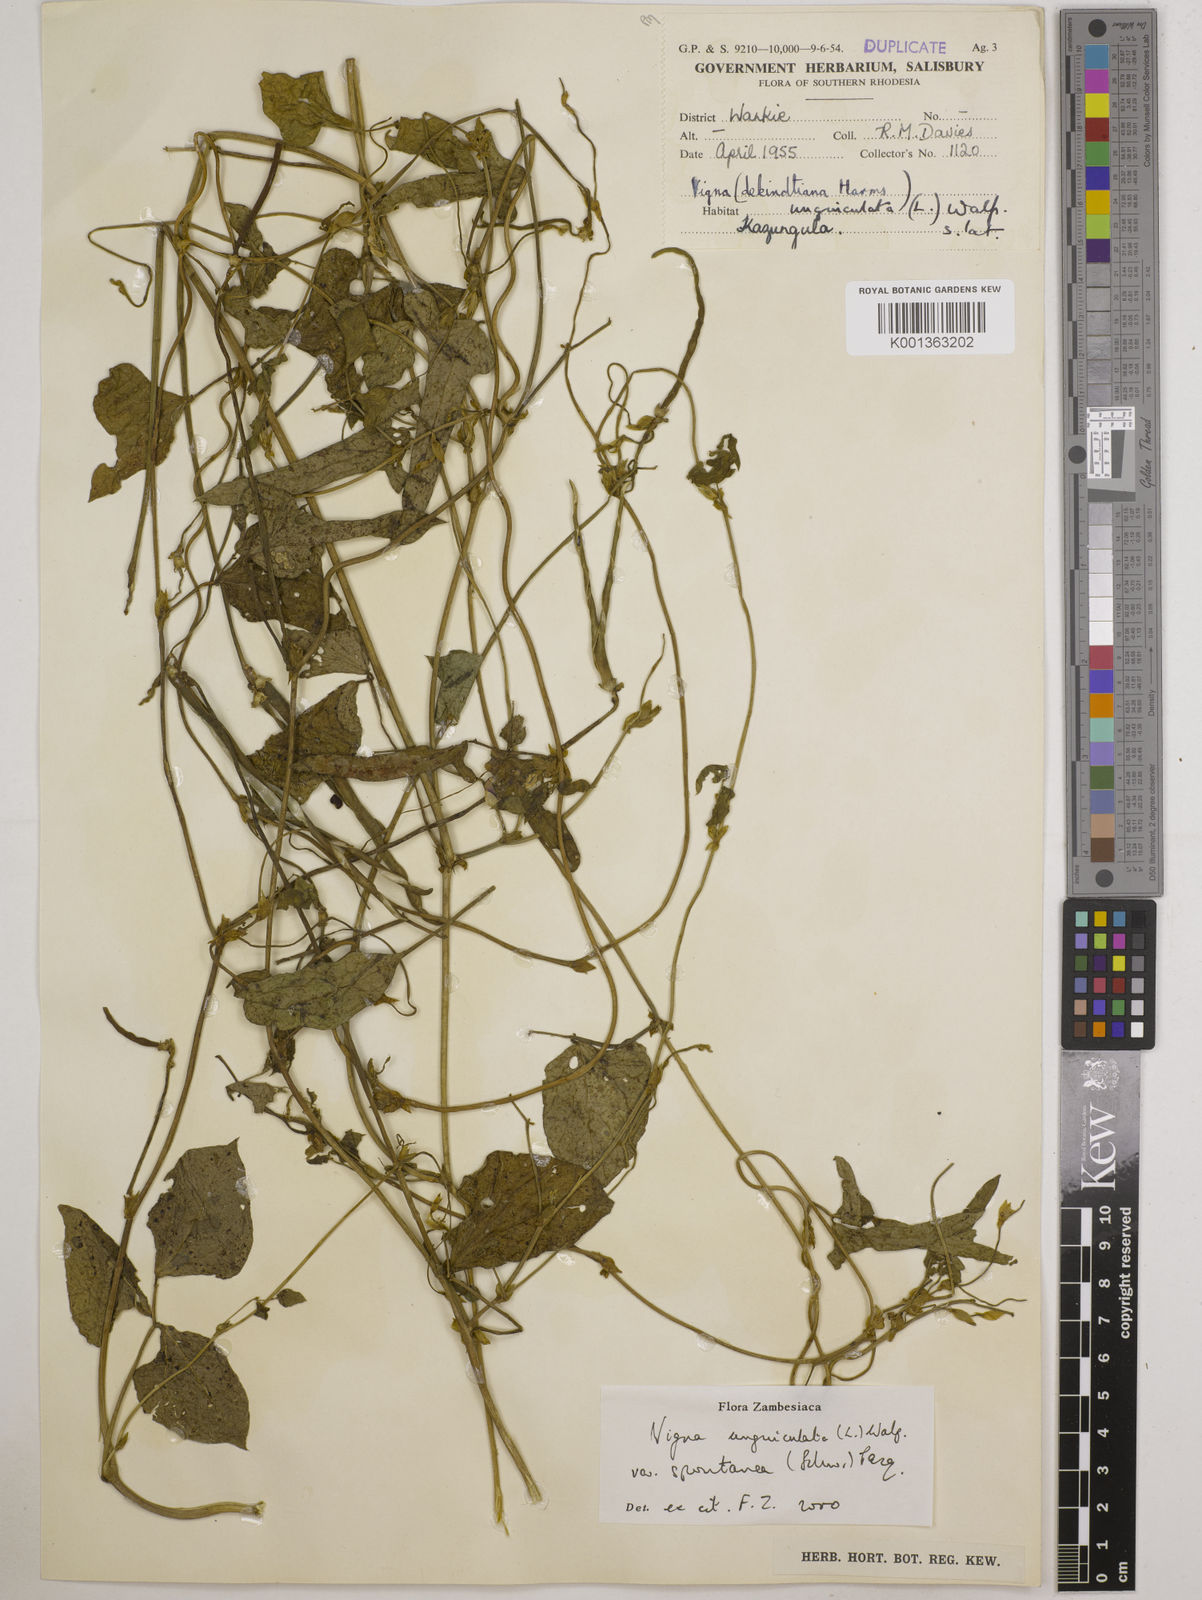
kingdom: Plantae
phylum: Tracheophyta
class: Magnoliopsida
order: Fabales
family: Fabaceae
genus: Vigna
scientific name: Vigna unguiculata
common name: Cowpea
